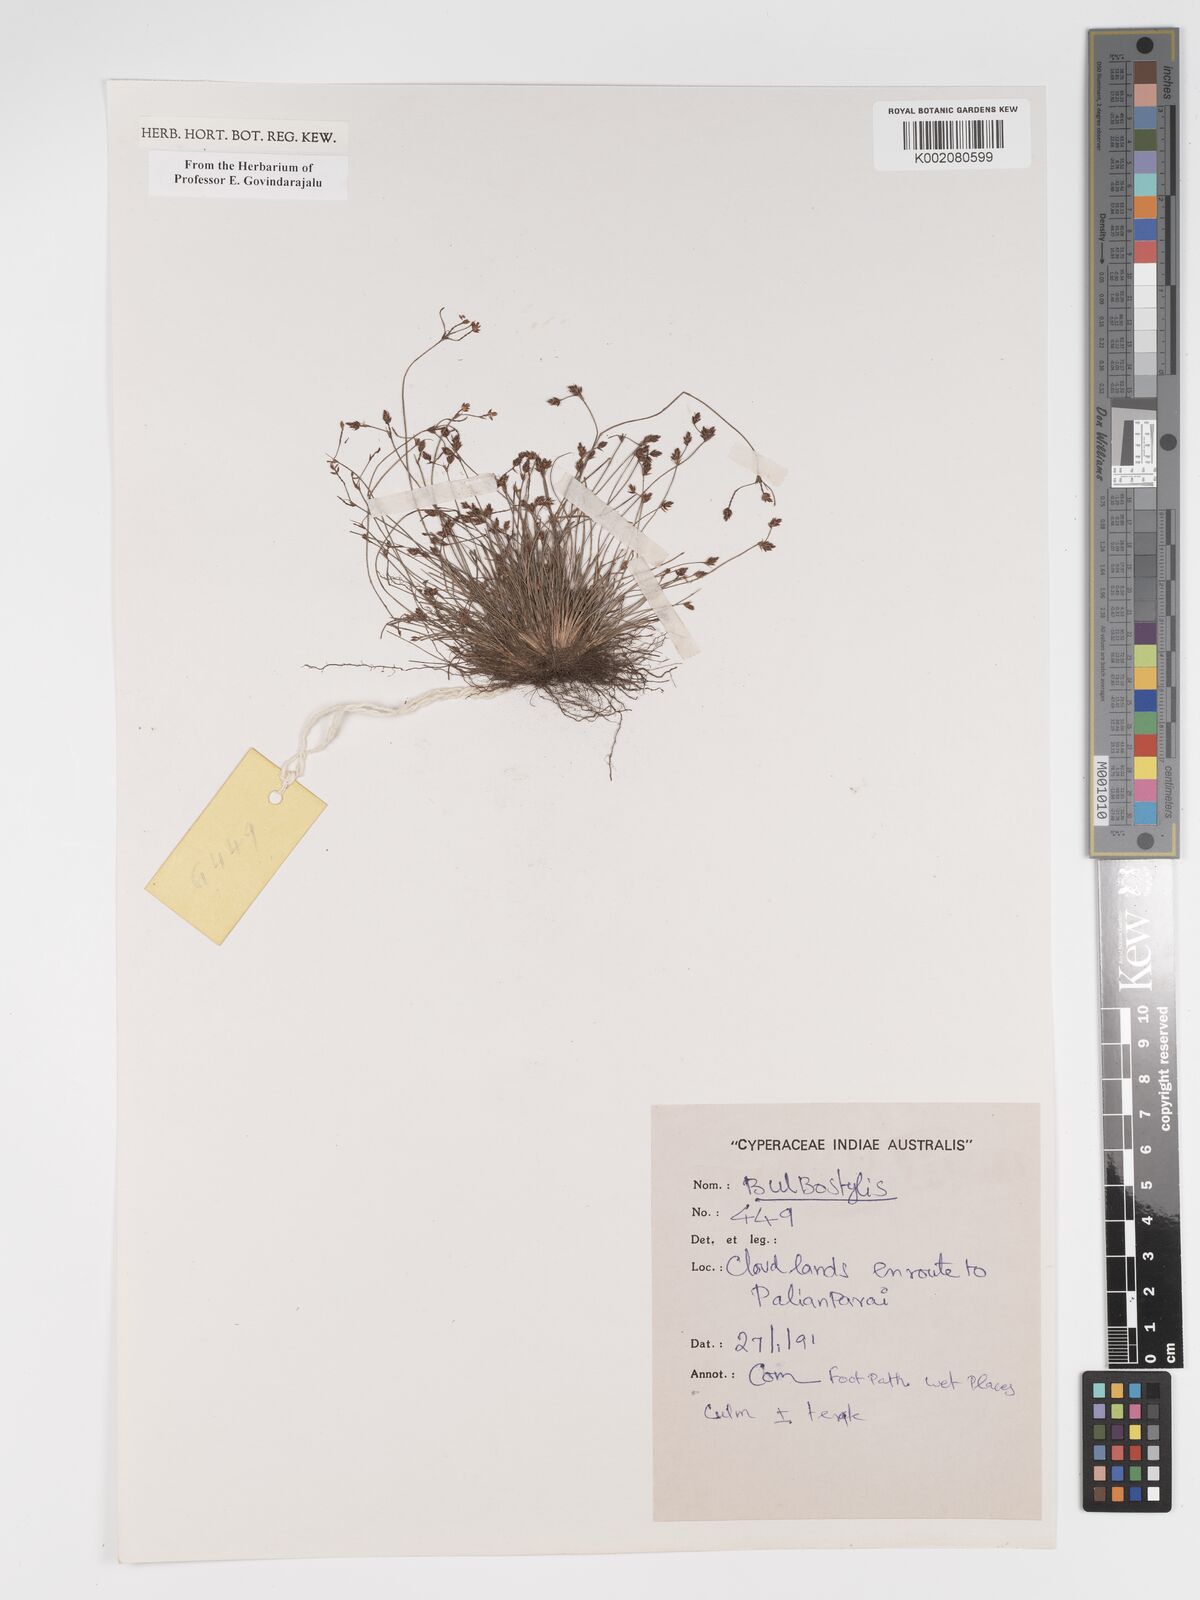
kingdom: Plantae
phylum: Tracheophyta
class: Liliopsida
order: Poales
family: Cyperaceae
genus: Bulbostylis
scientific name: Bulbostylis
